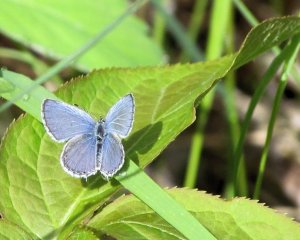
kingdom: Animalia
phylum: Arthropoda
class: Insecta
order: Lepidoptera
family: Lycaenidae
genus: Elkalyce
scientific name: Elkalyce amyntula
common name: Western Tailed-Blue
